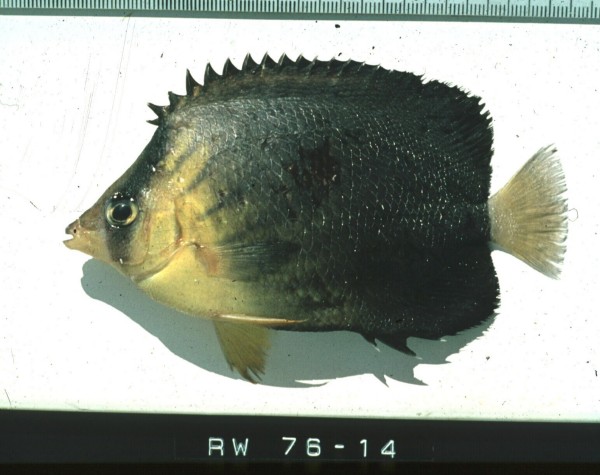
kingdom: Animalia
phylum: Chordata
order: Perciformes
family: Chaetodontidae
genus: Chaetodon
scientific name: Chaetodon blackburnii
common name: Blackburn's butterflyfish
